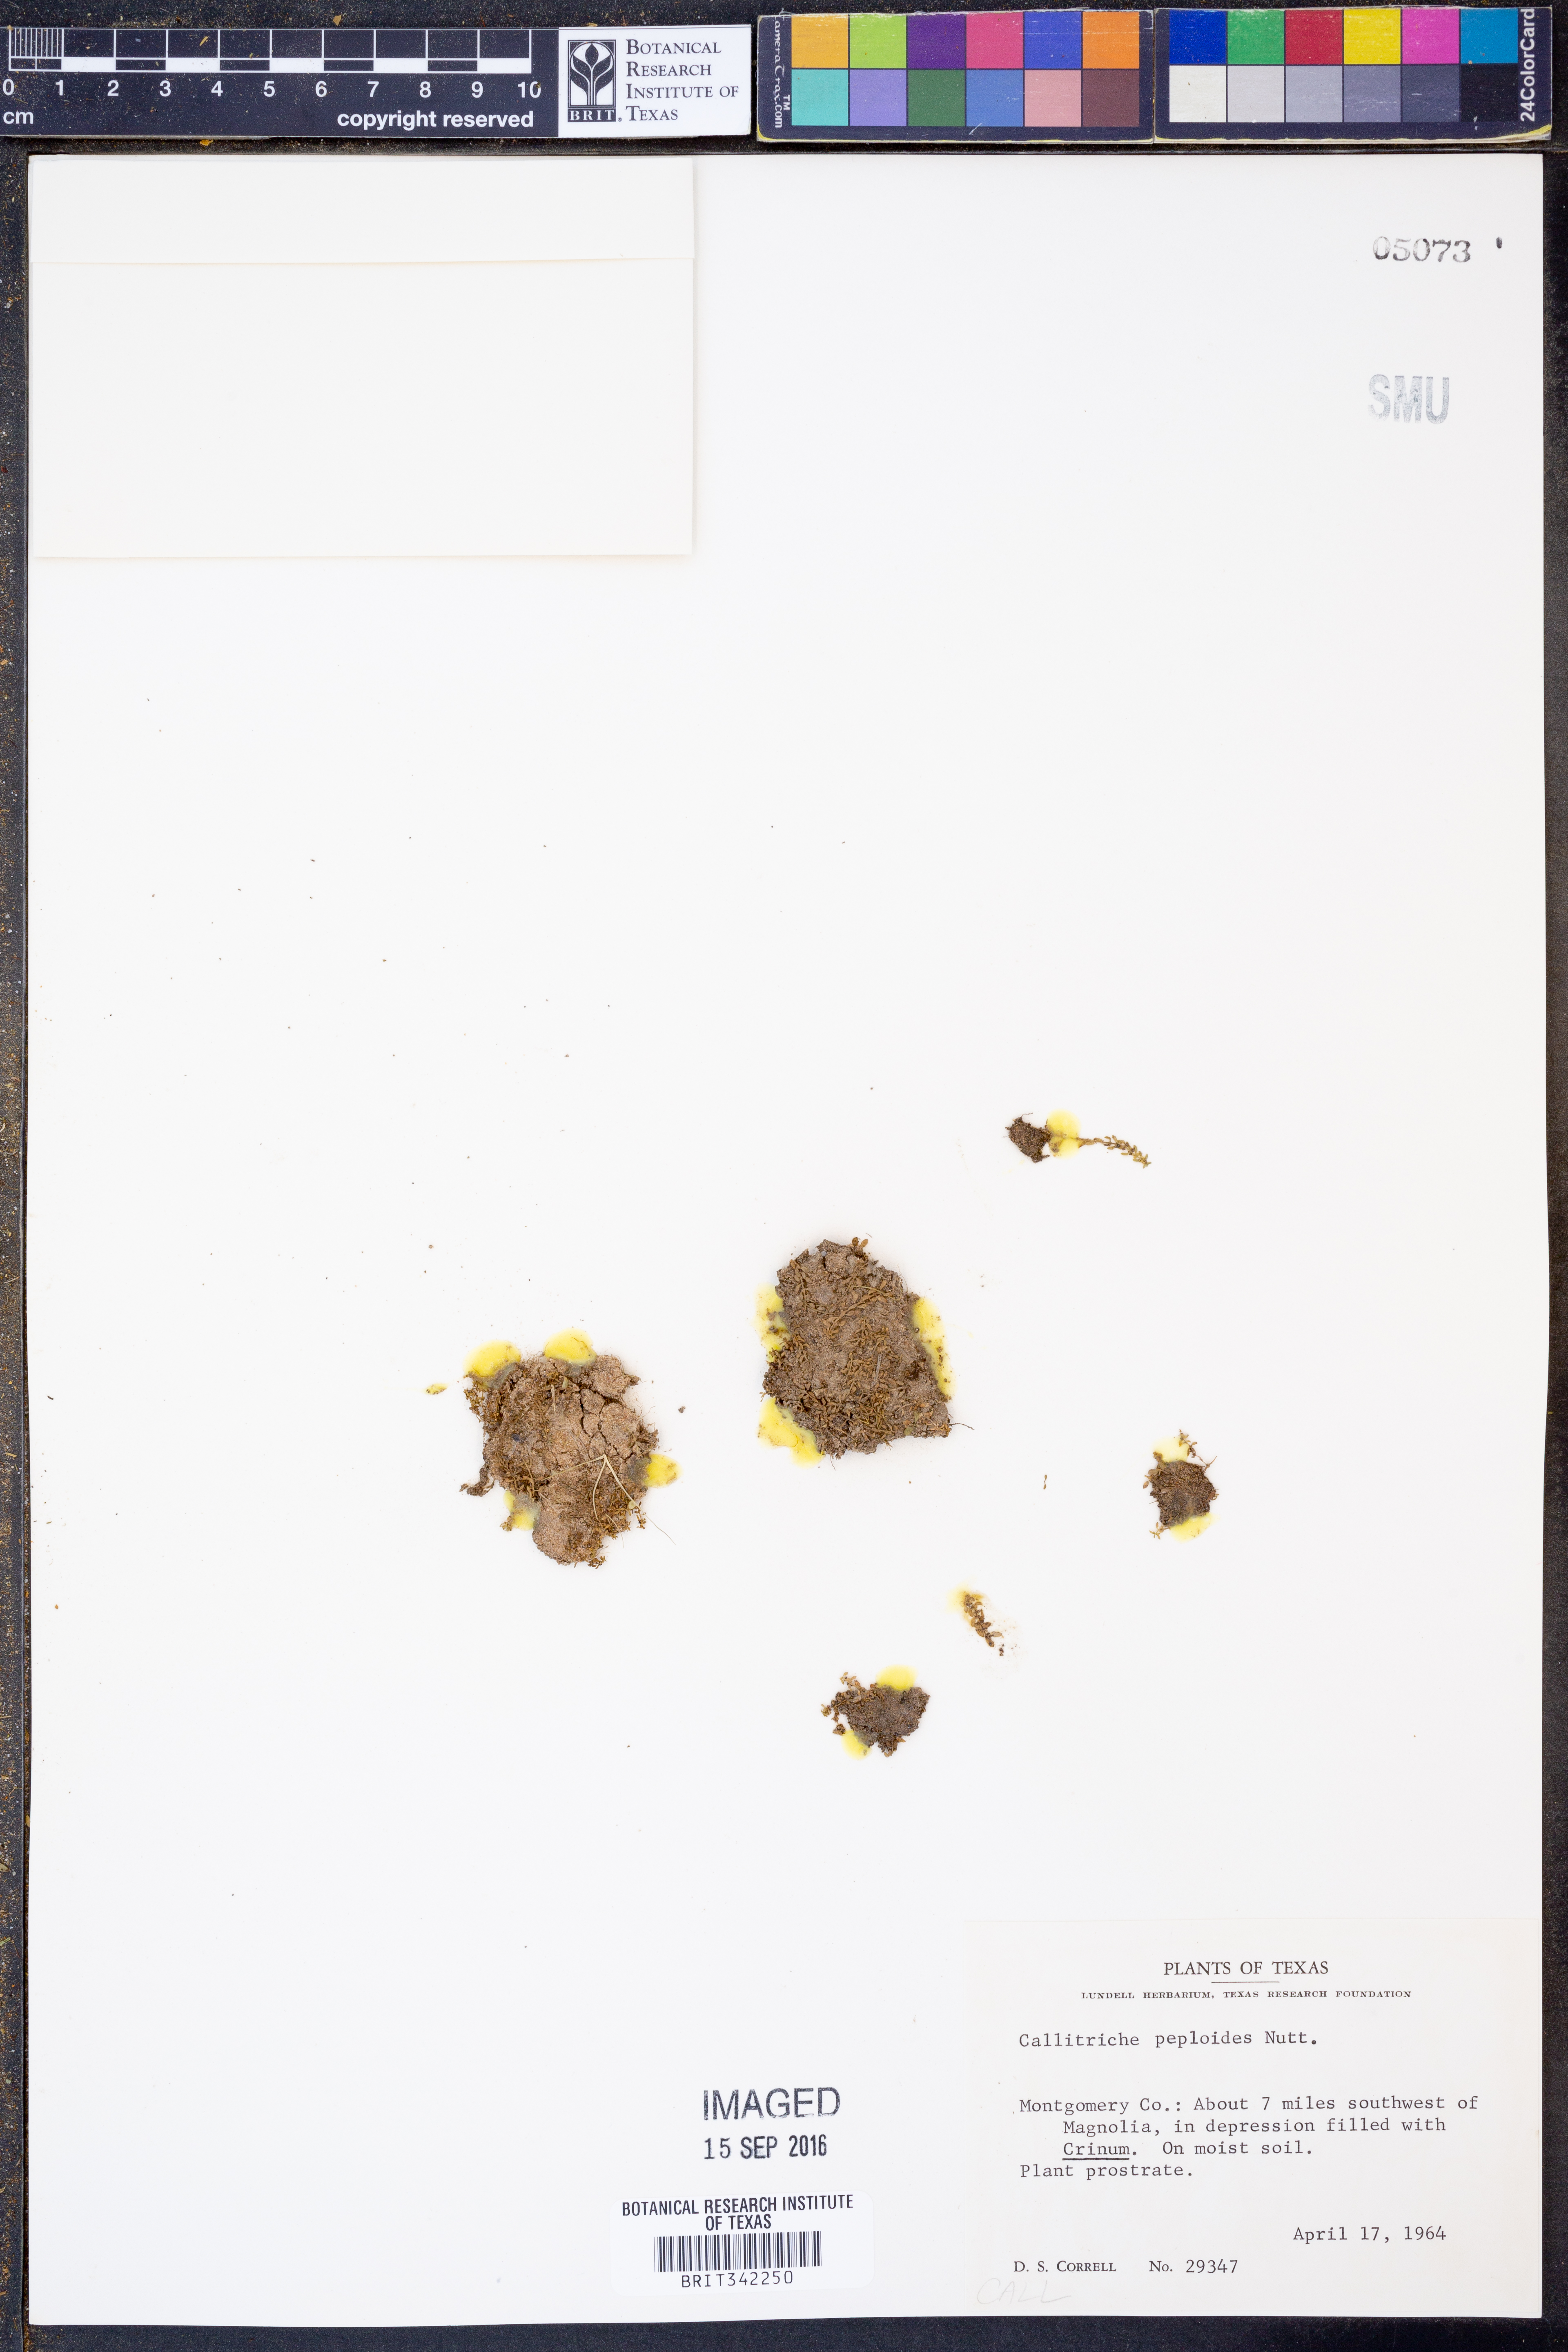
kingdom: Plantae
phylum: Tracheophyta
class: Magnoliopsida
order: Lamiales
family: Plantaginaceae
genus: Callitriche
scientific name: Callitriche peploides
